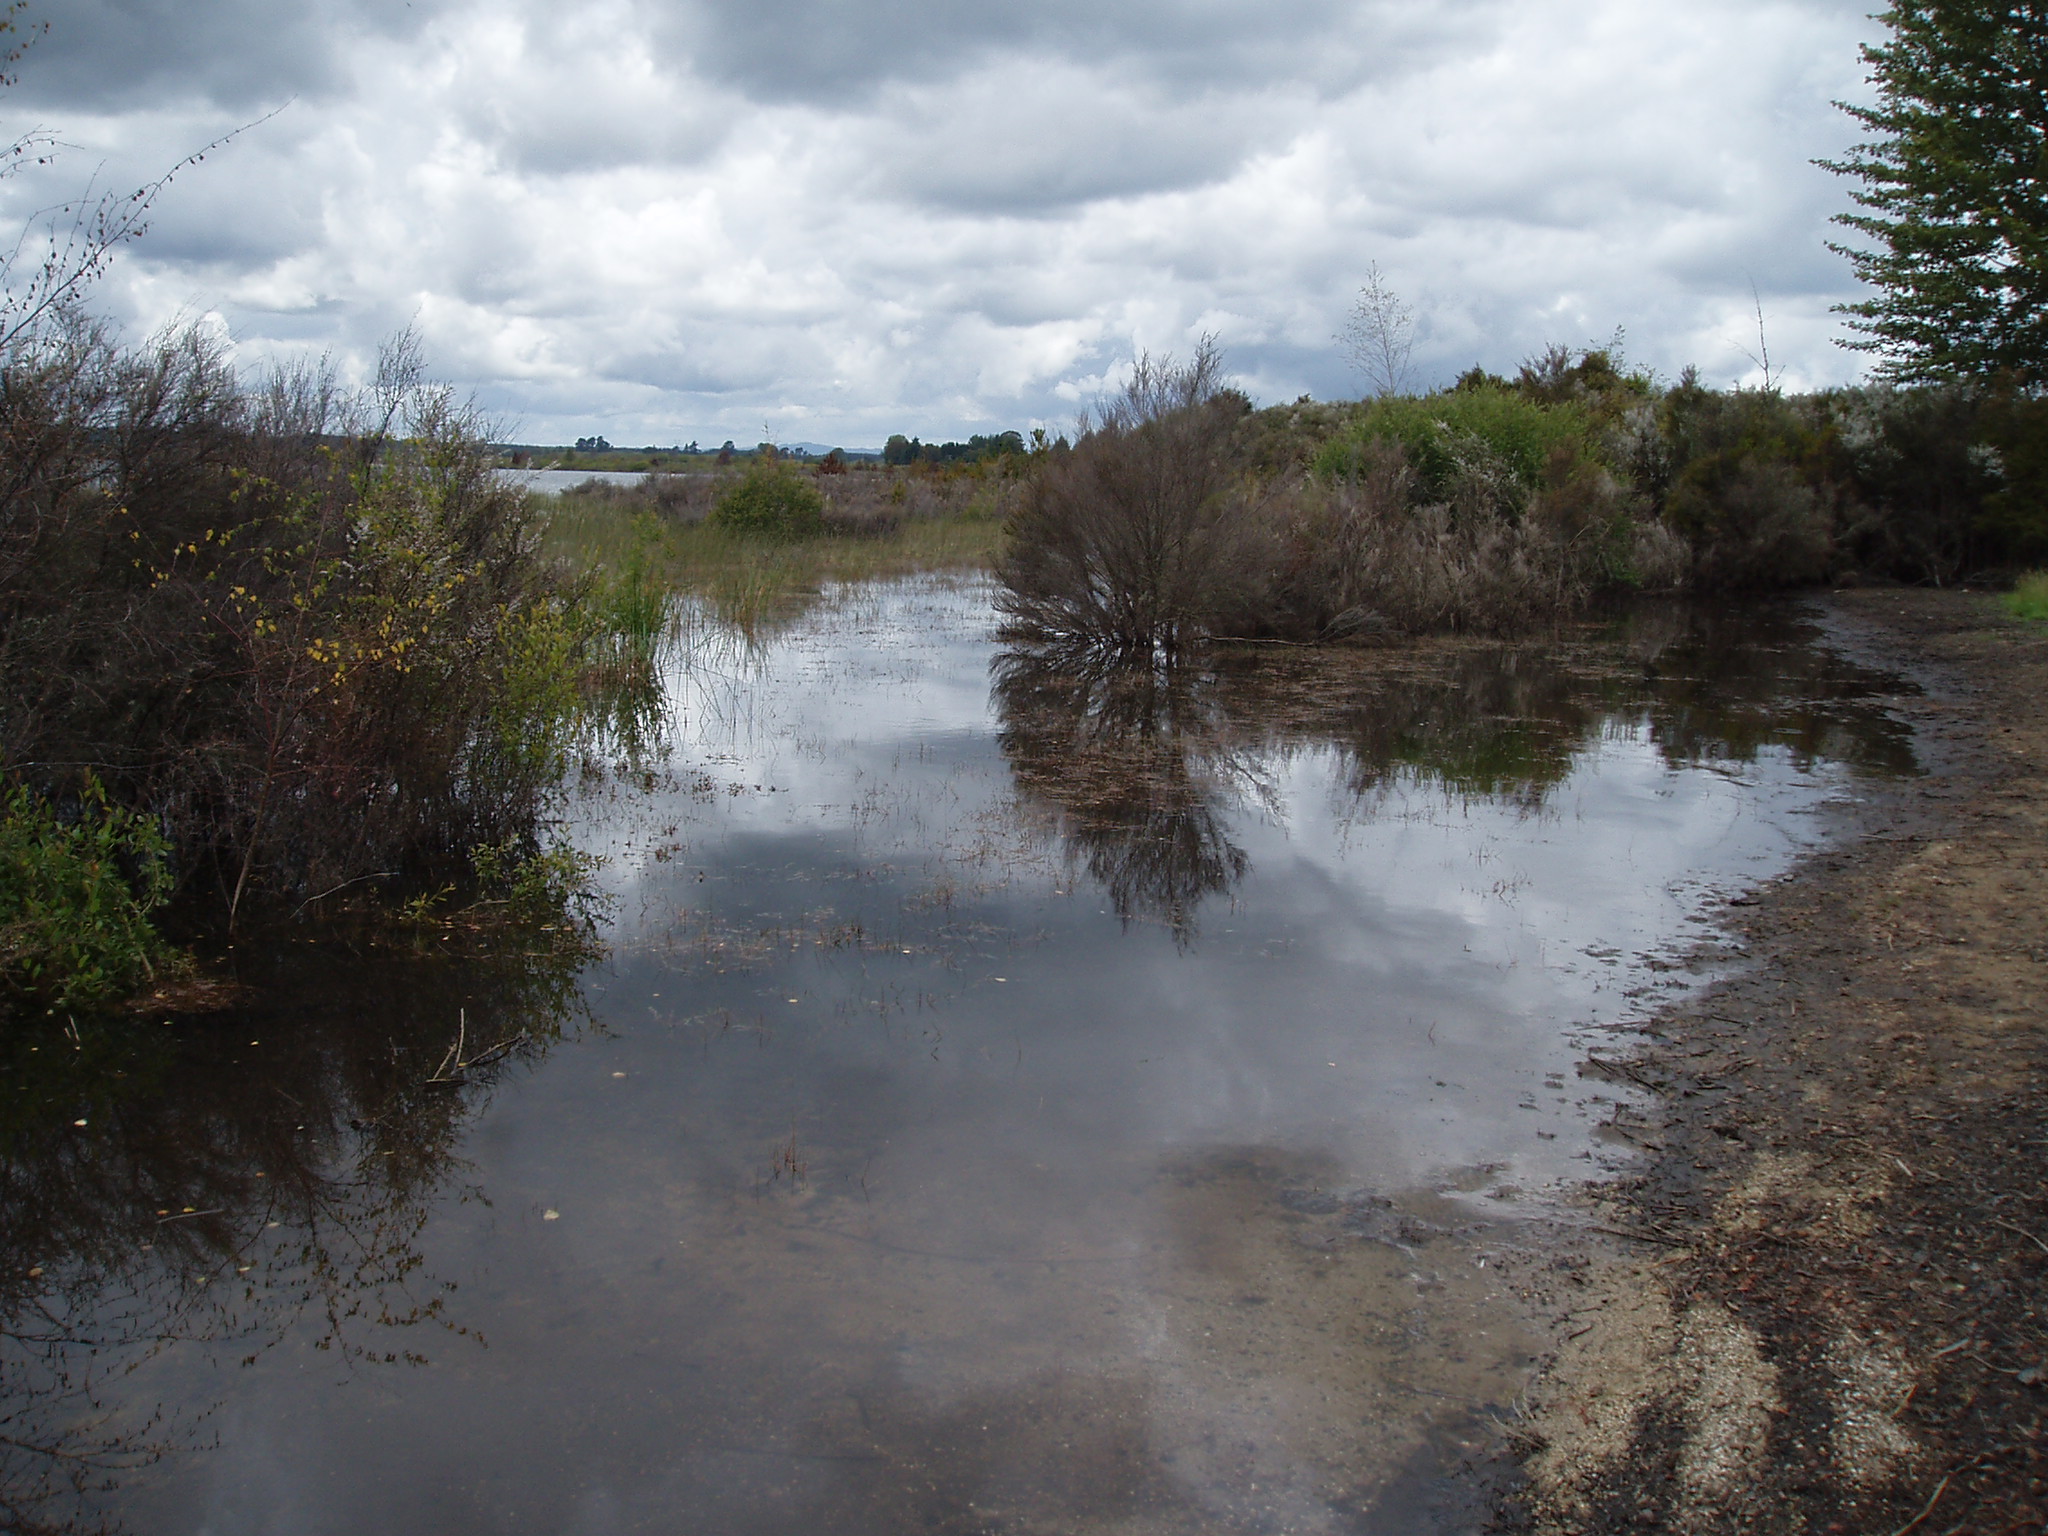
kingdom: Plantae
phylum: Tracheophyta
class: Liliopsida
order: Poales
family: Juncaceae
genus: Juncus
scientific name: Juncus bulbosus
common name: Bulbous rush
